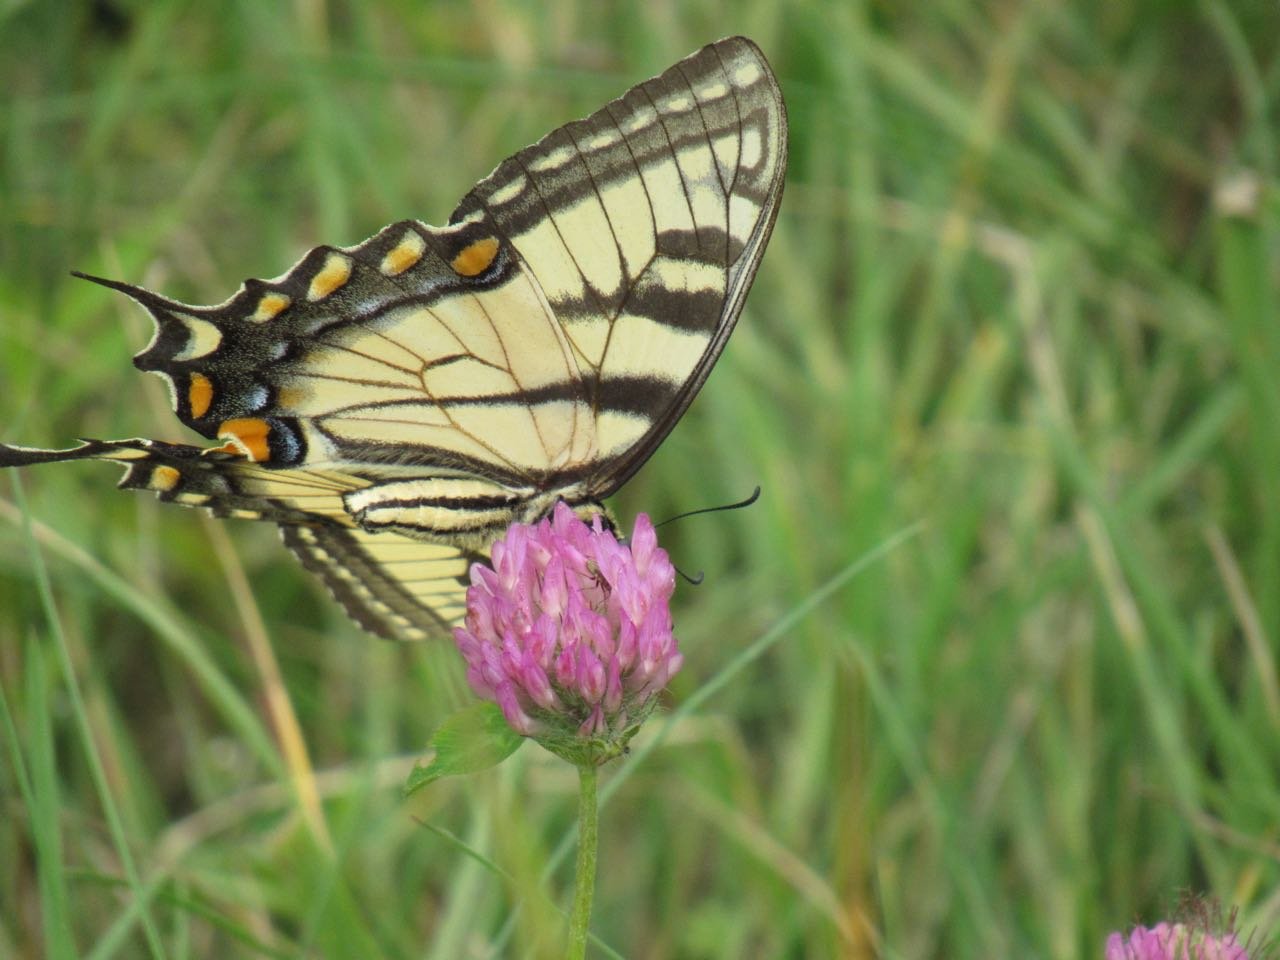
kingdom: Animalia
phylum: Arthropoda
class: Insecta
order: Lepidoptera
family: Papilionidae
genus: Pterourus
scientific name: Pterourus
